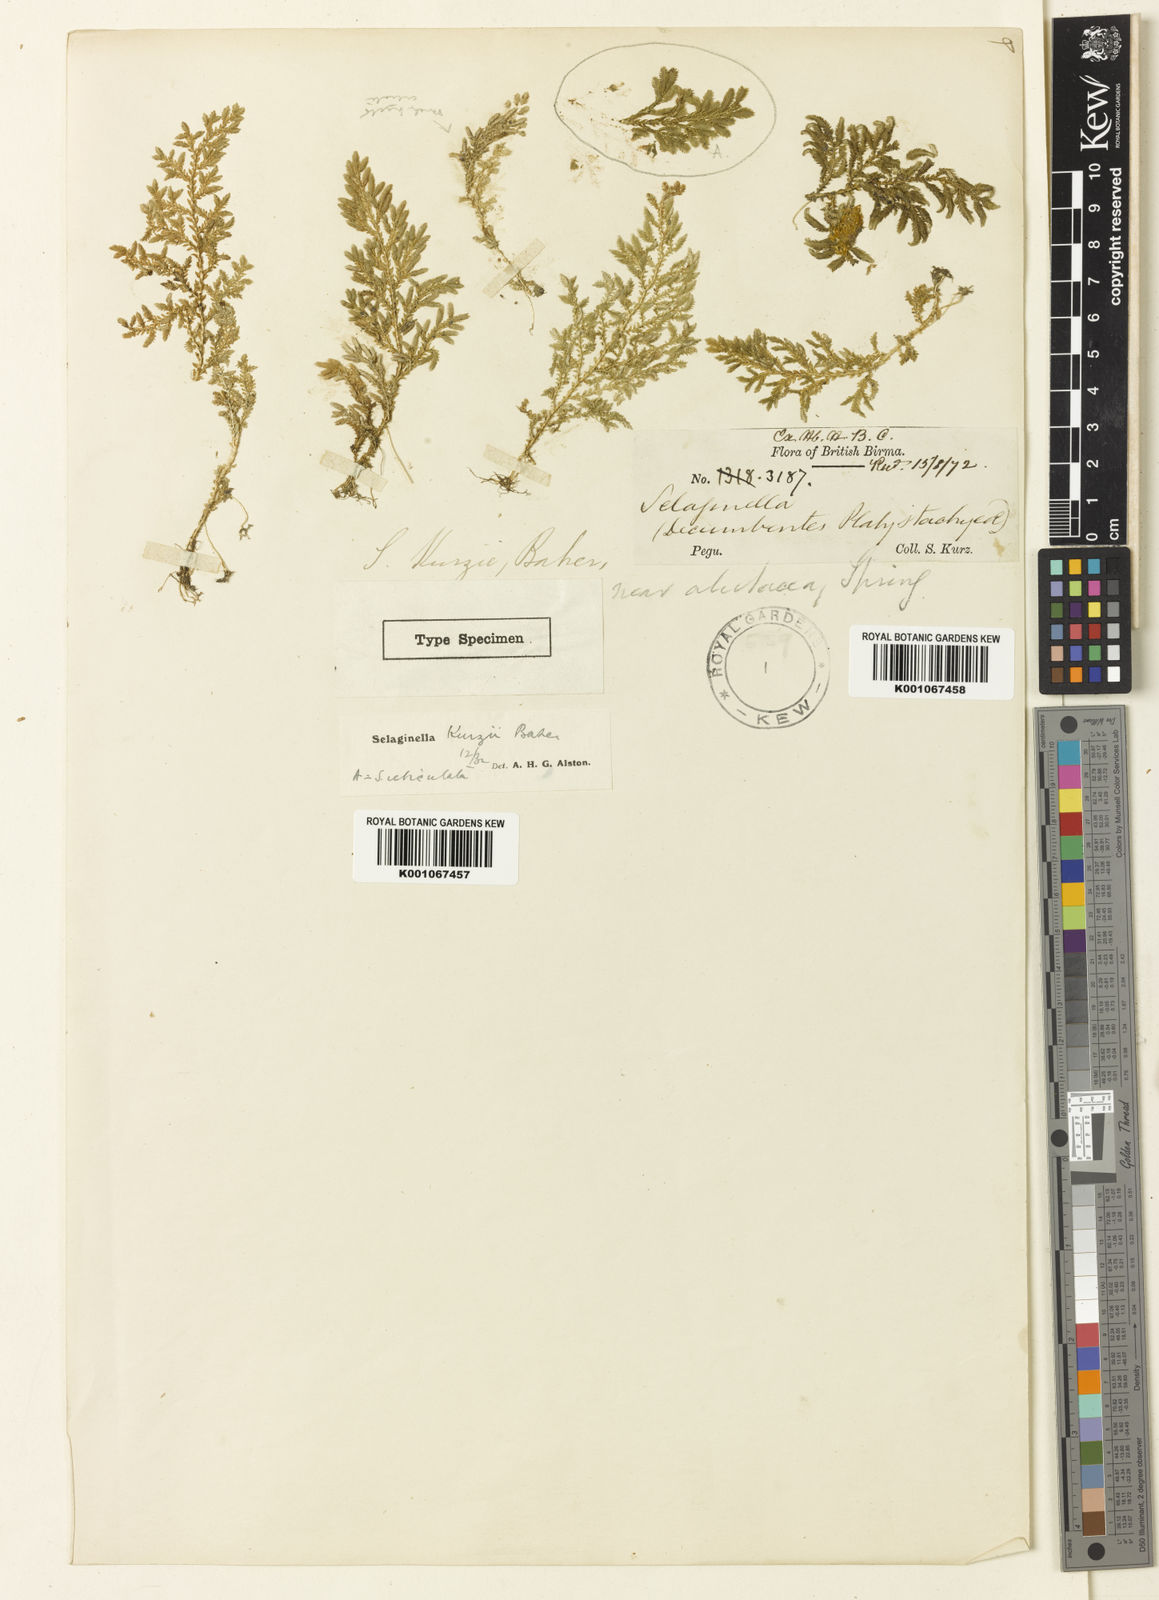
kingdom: Plantae
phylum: Tracheophyta
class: Lycopodiopsida
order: Selaginellales
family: Selaginellaceae
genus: Selaginella
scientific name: Selaginella kurzii
